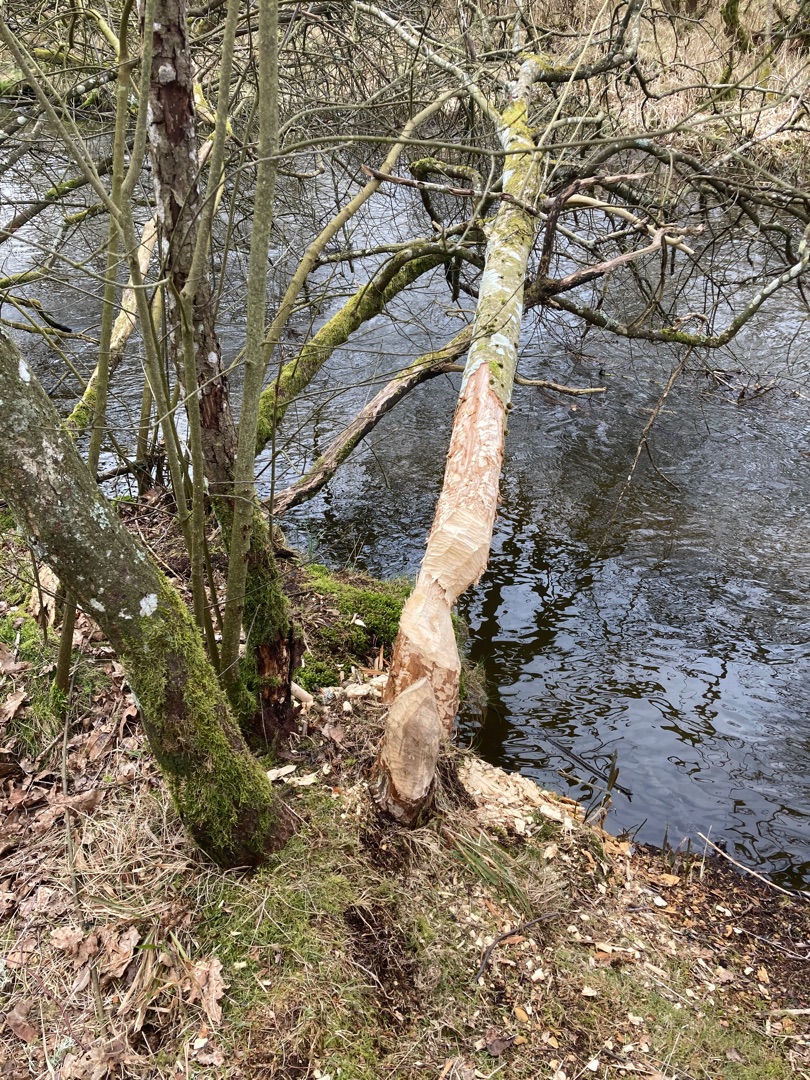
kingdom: Animalia
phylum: Chordata
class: Mammalia
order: Rodentia
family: Castoridae
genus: Castor
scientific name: Castor fiber
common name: Bæver
